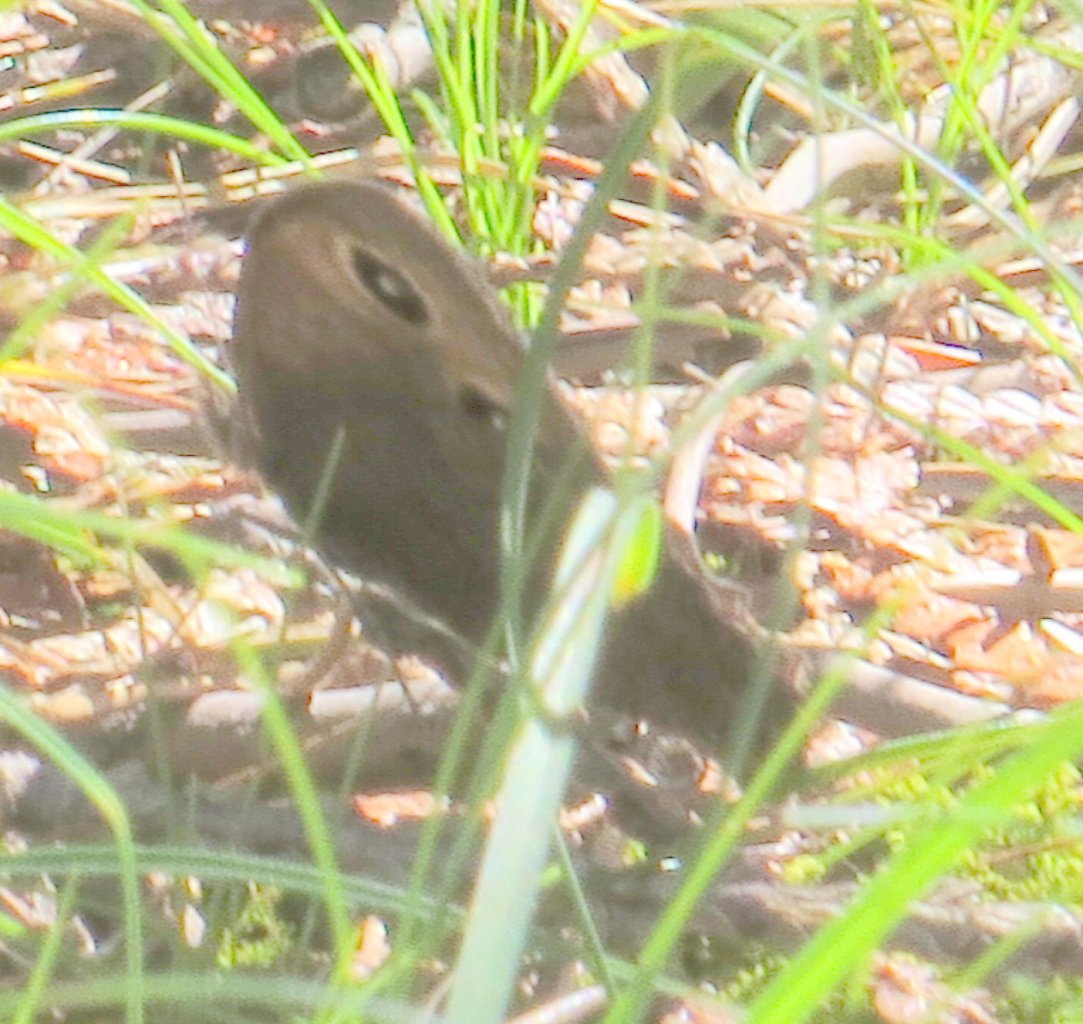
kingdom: Animalia
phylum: Arthropoda
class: Insecta
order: Lepidoptera
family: Nymphalidae
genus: Cercyonis
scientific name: Cercyonis pegala
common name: Common Wood-Nymph
